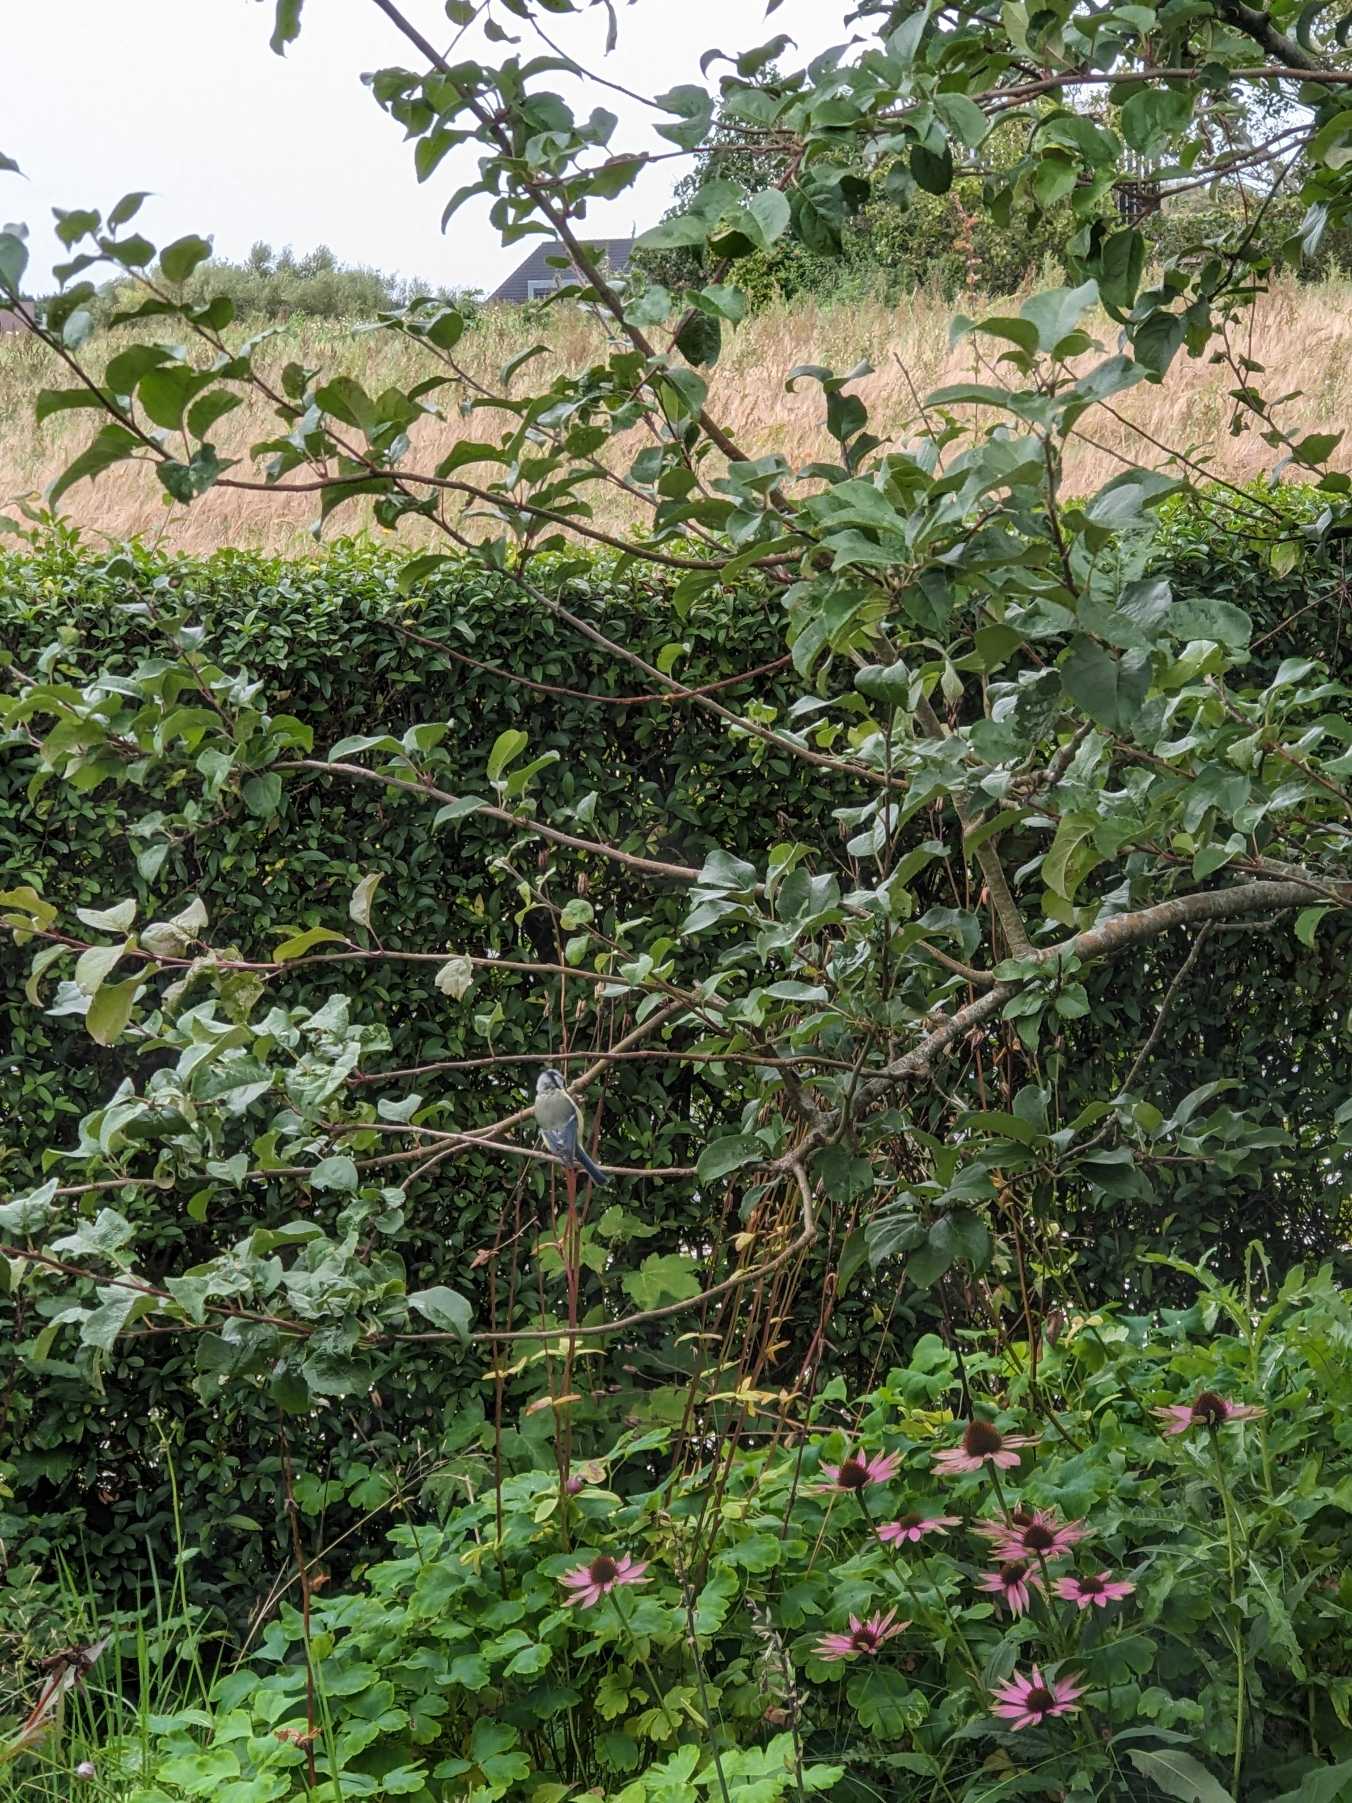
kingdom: Animalia
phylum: Chordata
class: Aves
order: Passeriformes
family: Paridae
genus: Cyanistes
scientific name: Cyanistes caeruleus
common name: Blåmejse
